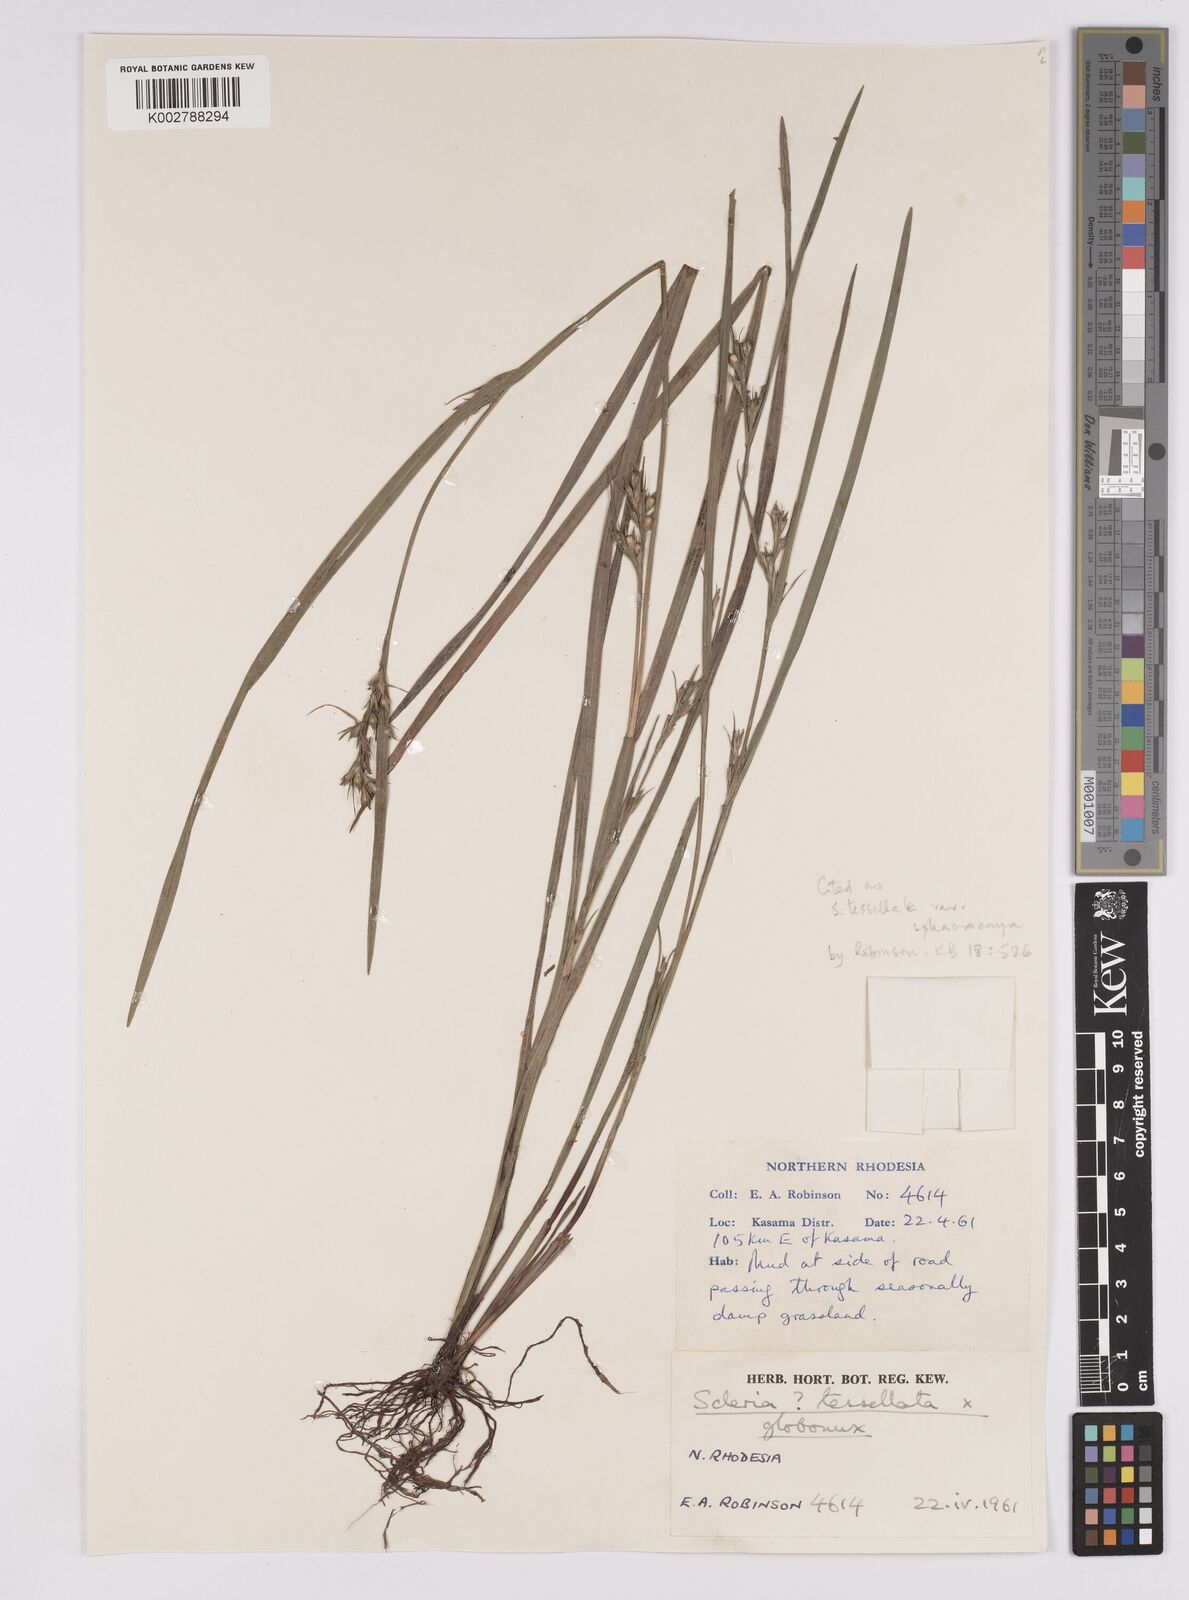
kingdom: Plantae
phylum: Tracheophyta
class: Liliopsida
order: Poales
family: Cyperaceae
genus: Scleria
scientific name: Scleria
